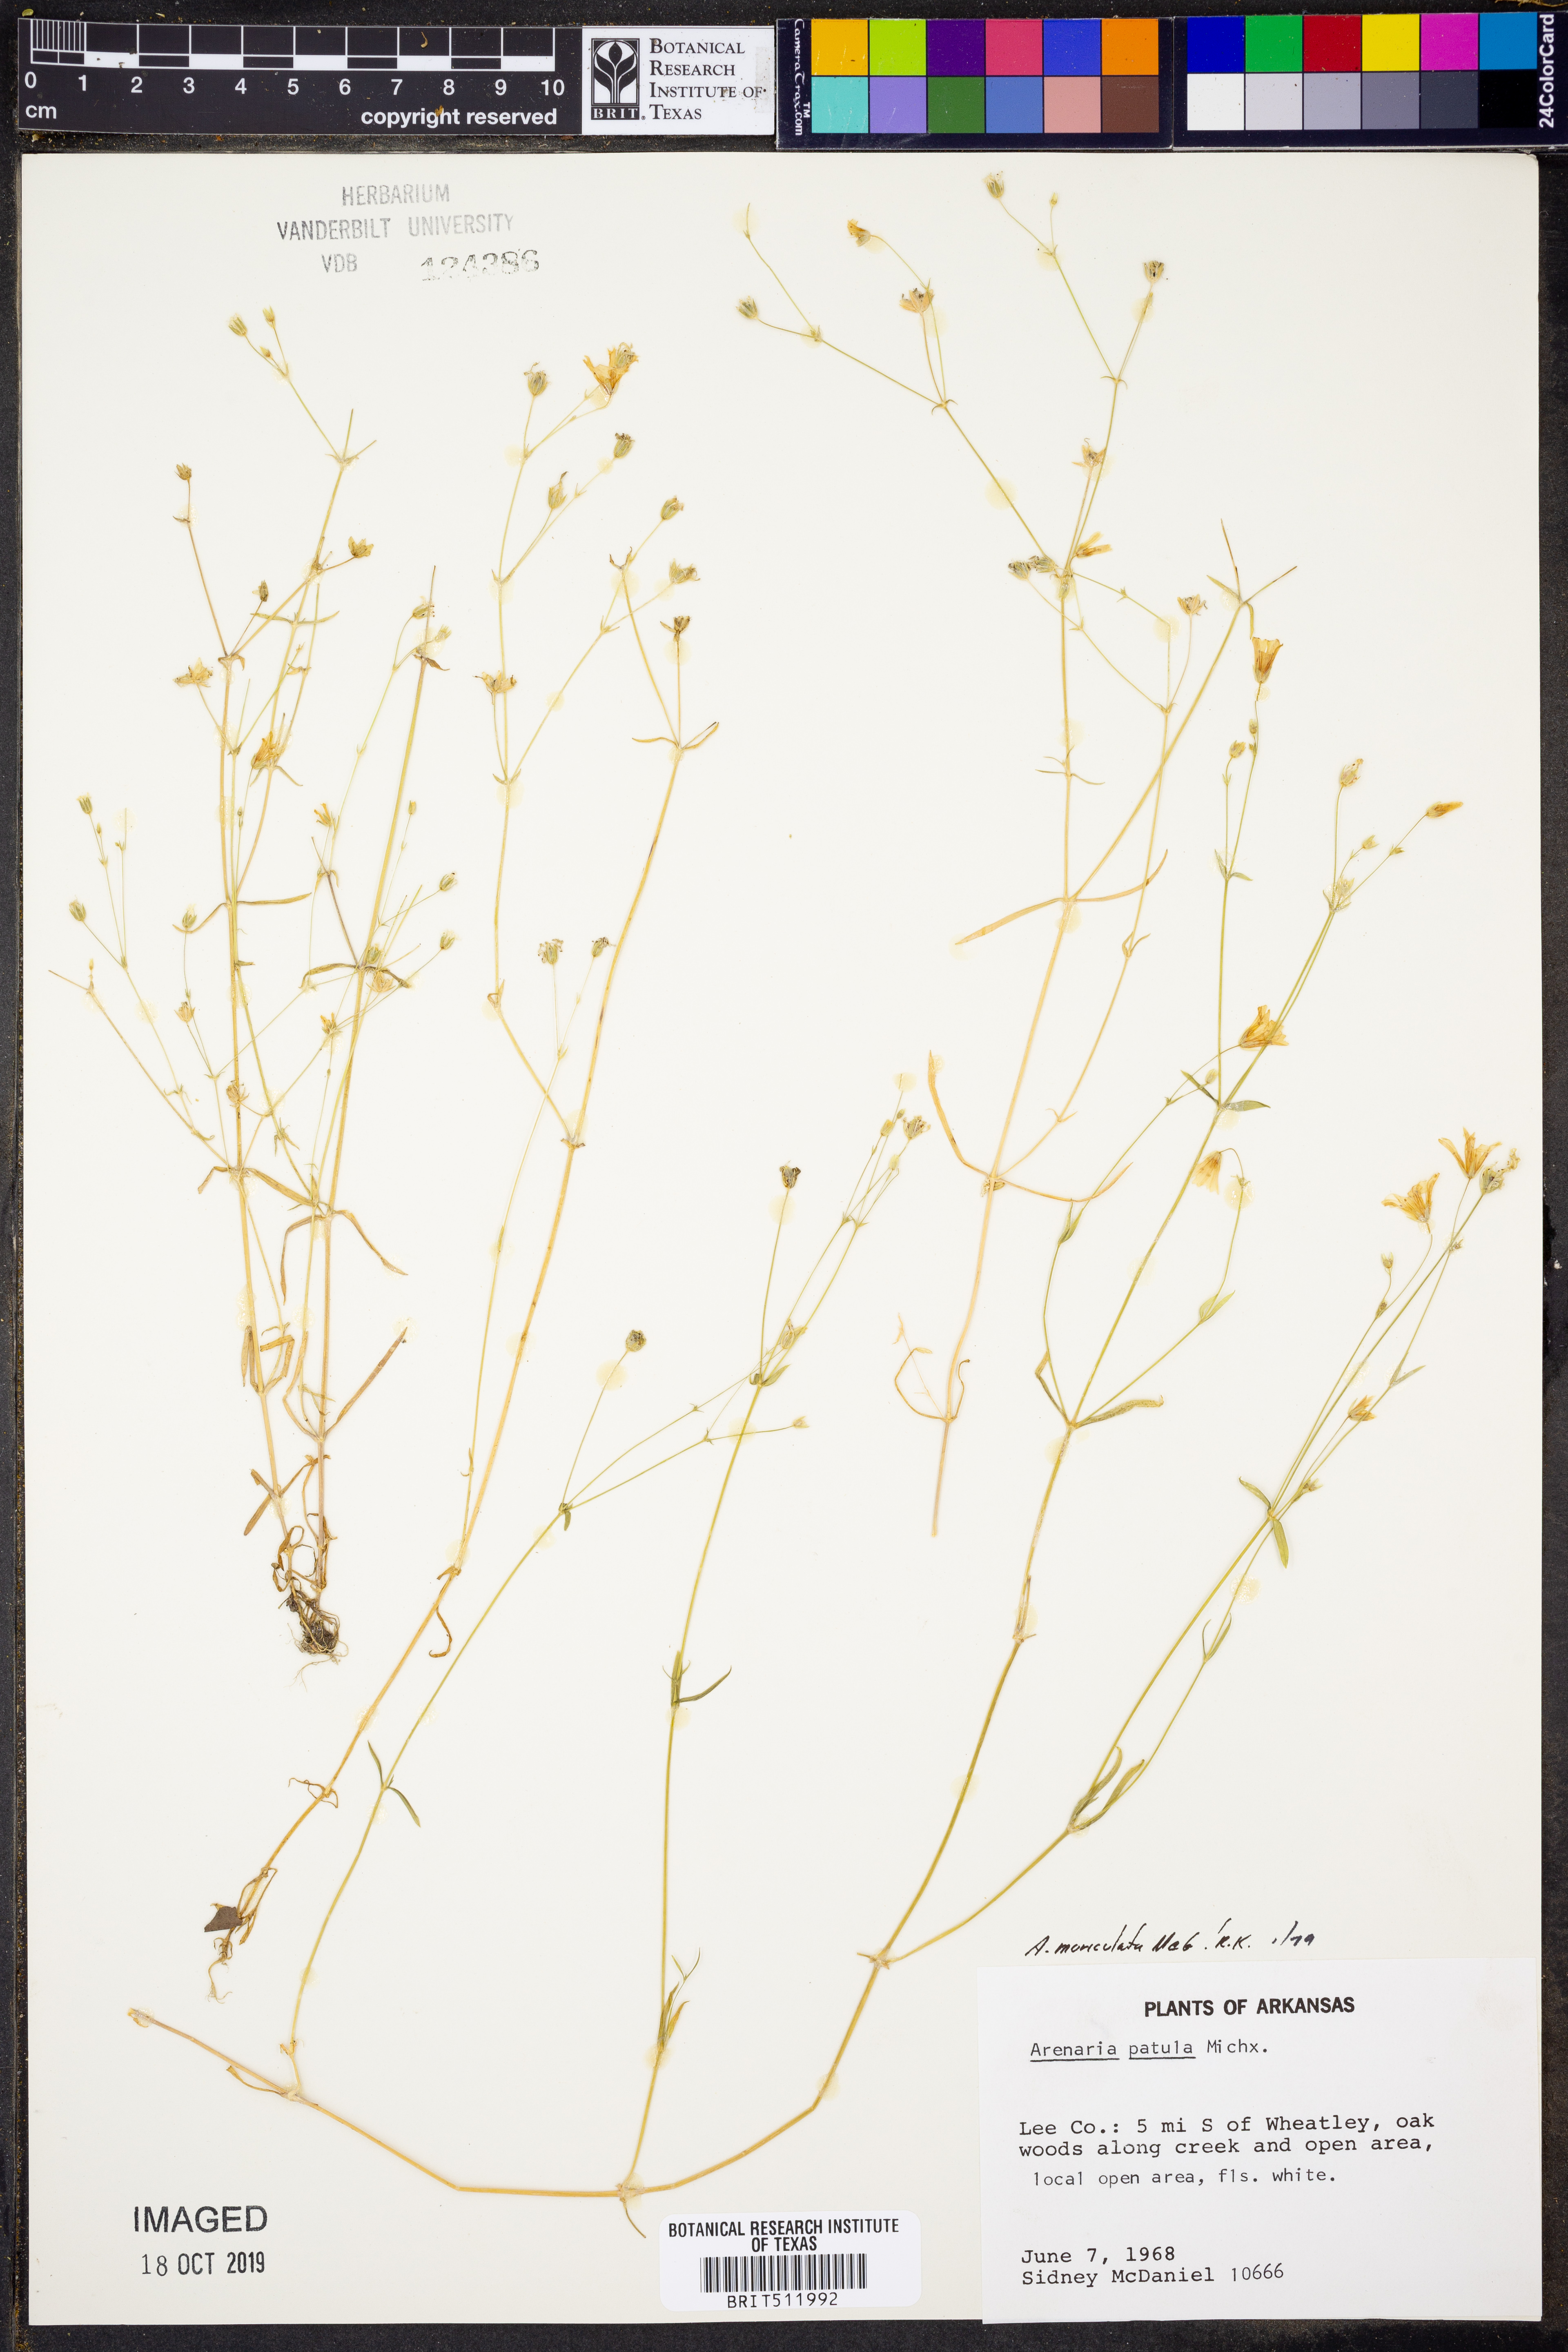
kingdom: Plantae
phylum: Tracheophyta
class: Magnoliopsida
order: Caryophyllales
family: Caryophyllaceae
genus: Mononeuria
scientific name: Mononeuria patula
